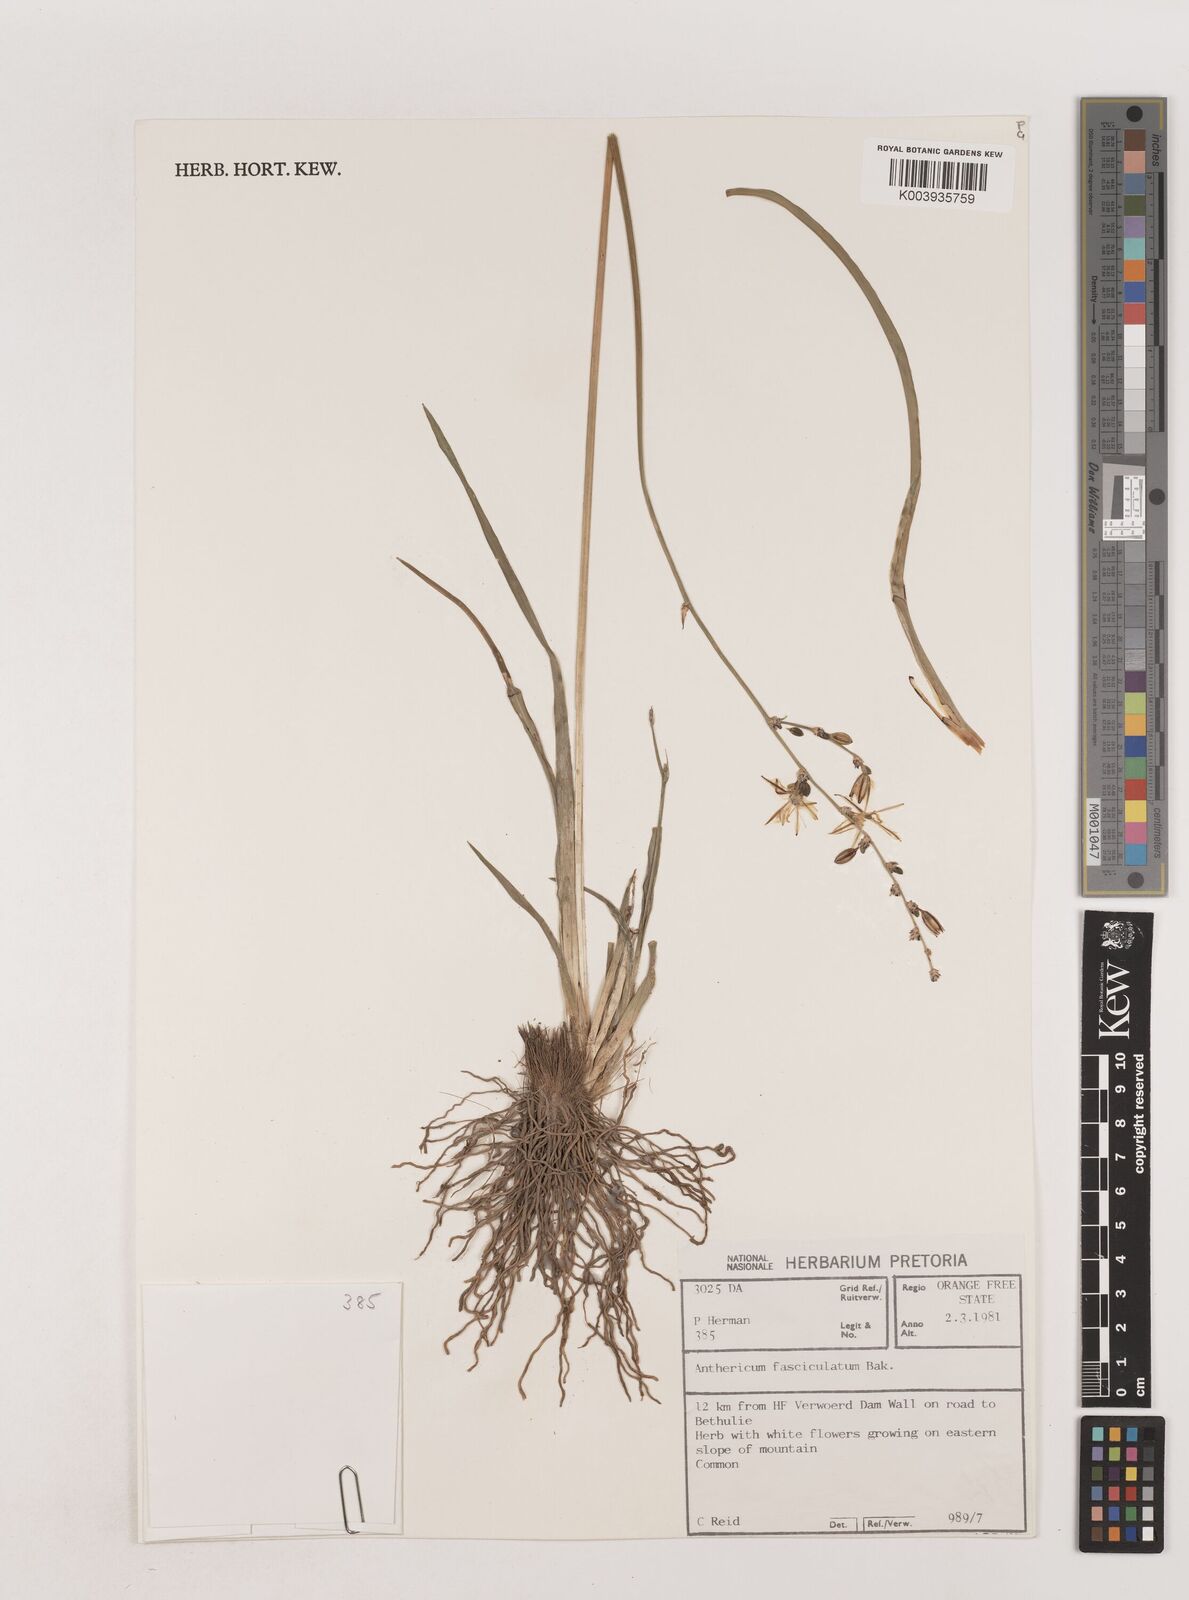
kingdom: Plantae
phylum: Tracheophyta
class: Liliopsida
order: Asparagales
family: Asparagaceae
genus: Chlorophytum
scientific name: Chlorophytum fasciculatum
